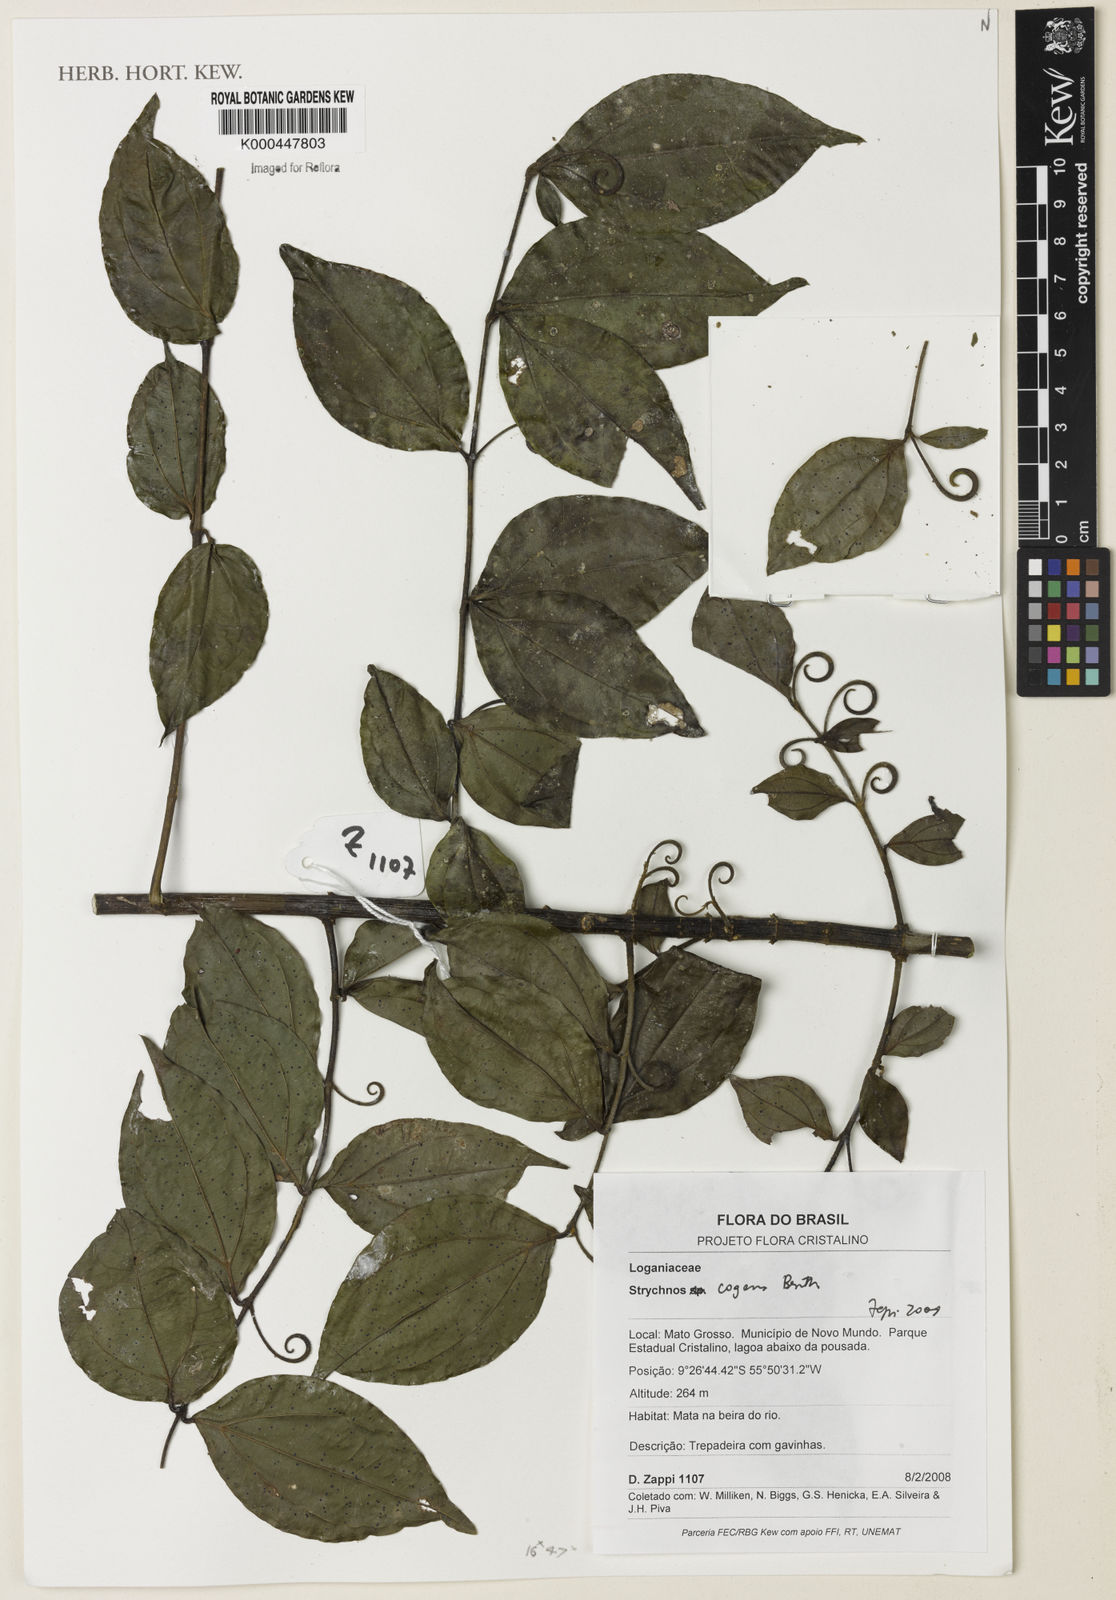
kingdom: Plantae
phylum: Tracheophyta
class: Magnoliopsida
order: Gentianales
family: Loganiaceae
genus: Strychnos
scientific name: Strychnos cogens
